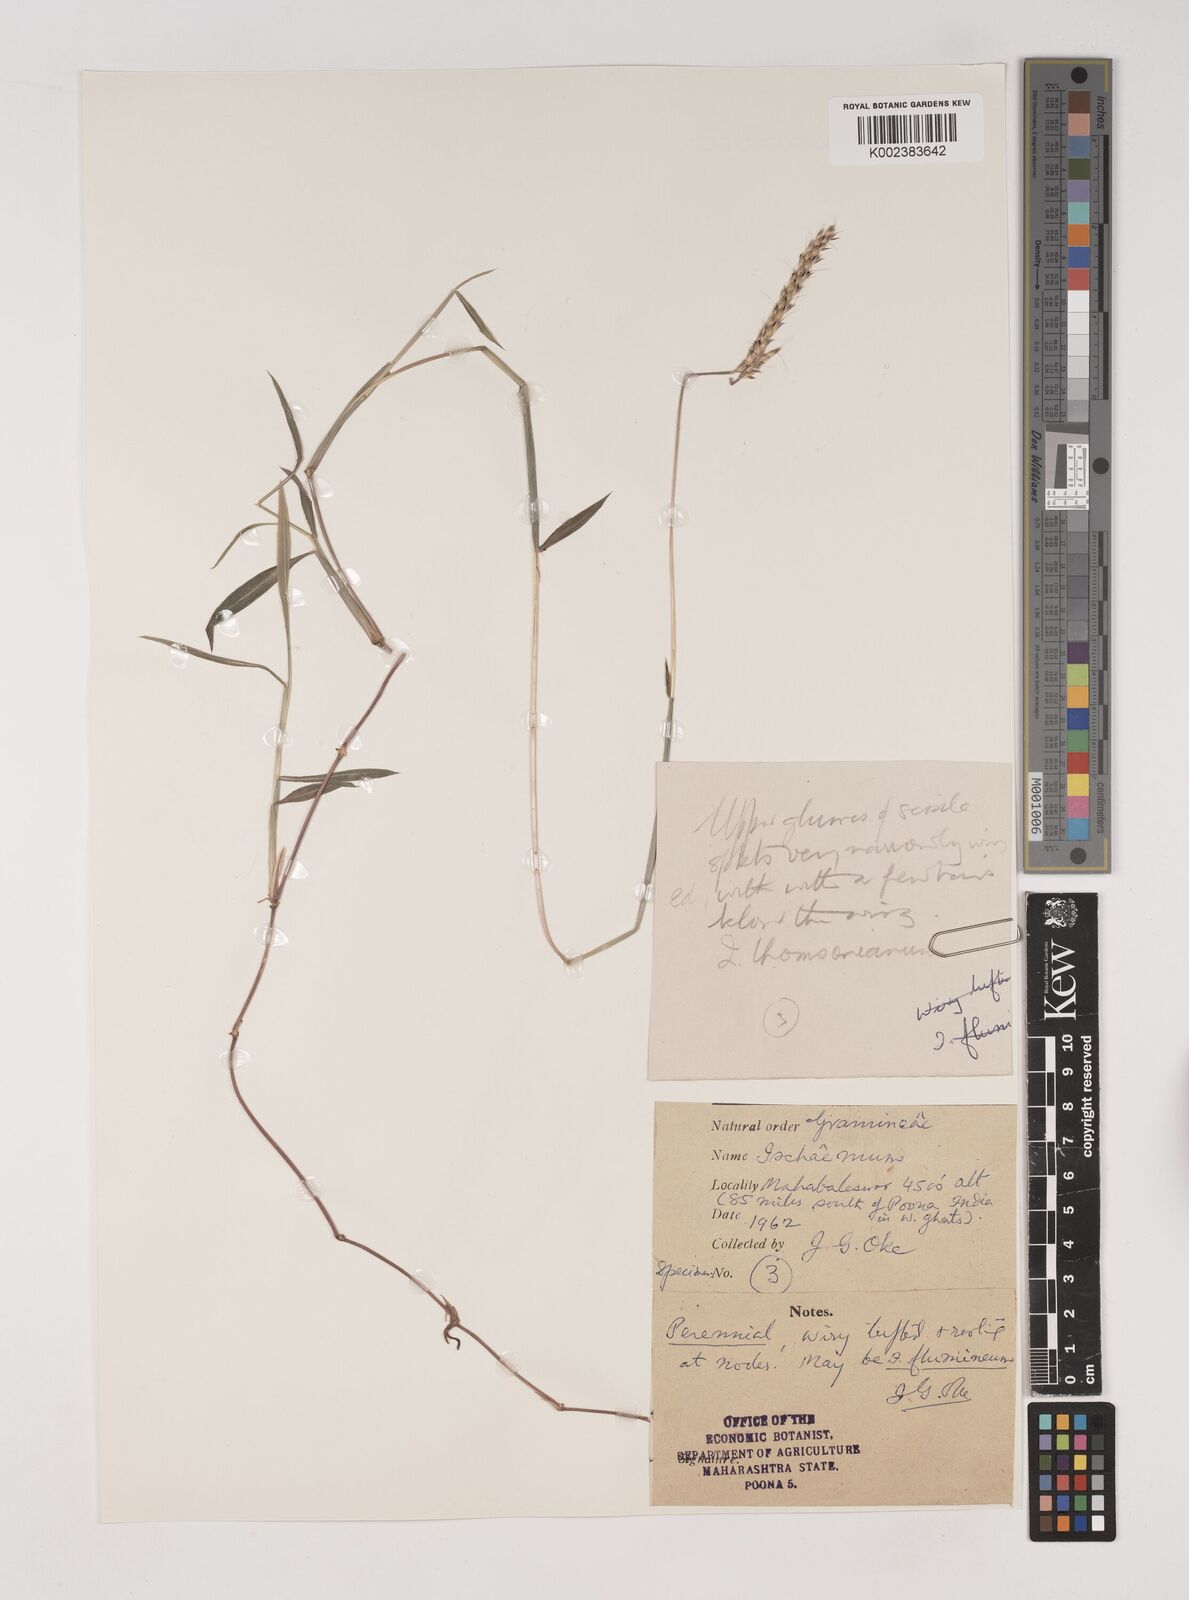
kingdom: Plantae
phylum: Tracheophyta
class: Liliopsida
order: Poales
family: Poaceae
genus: Ischaemum
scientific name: Ischaemum
